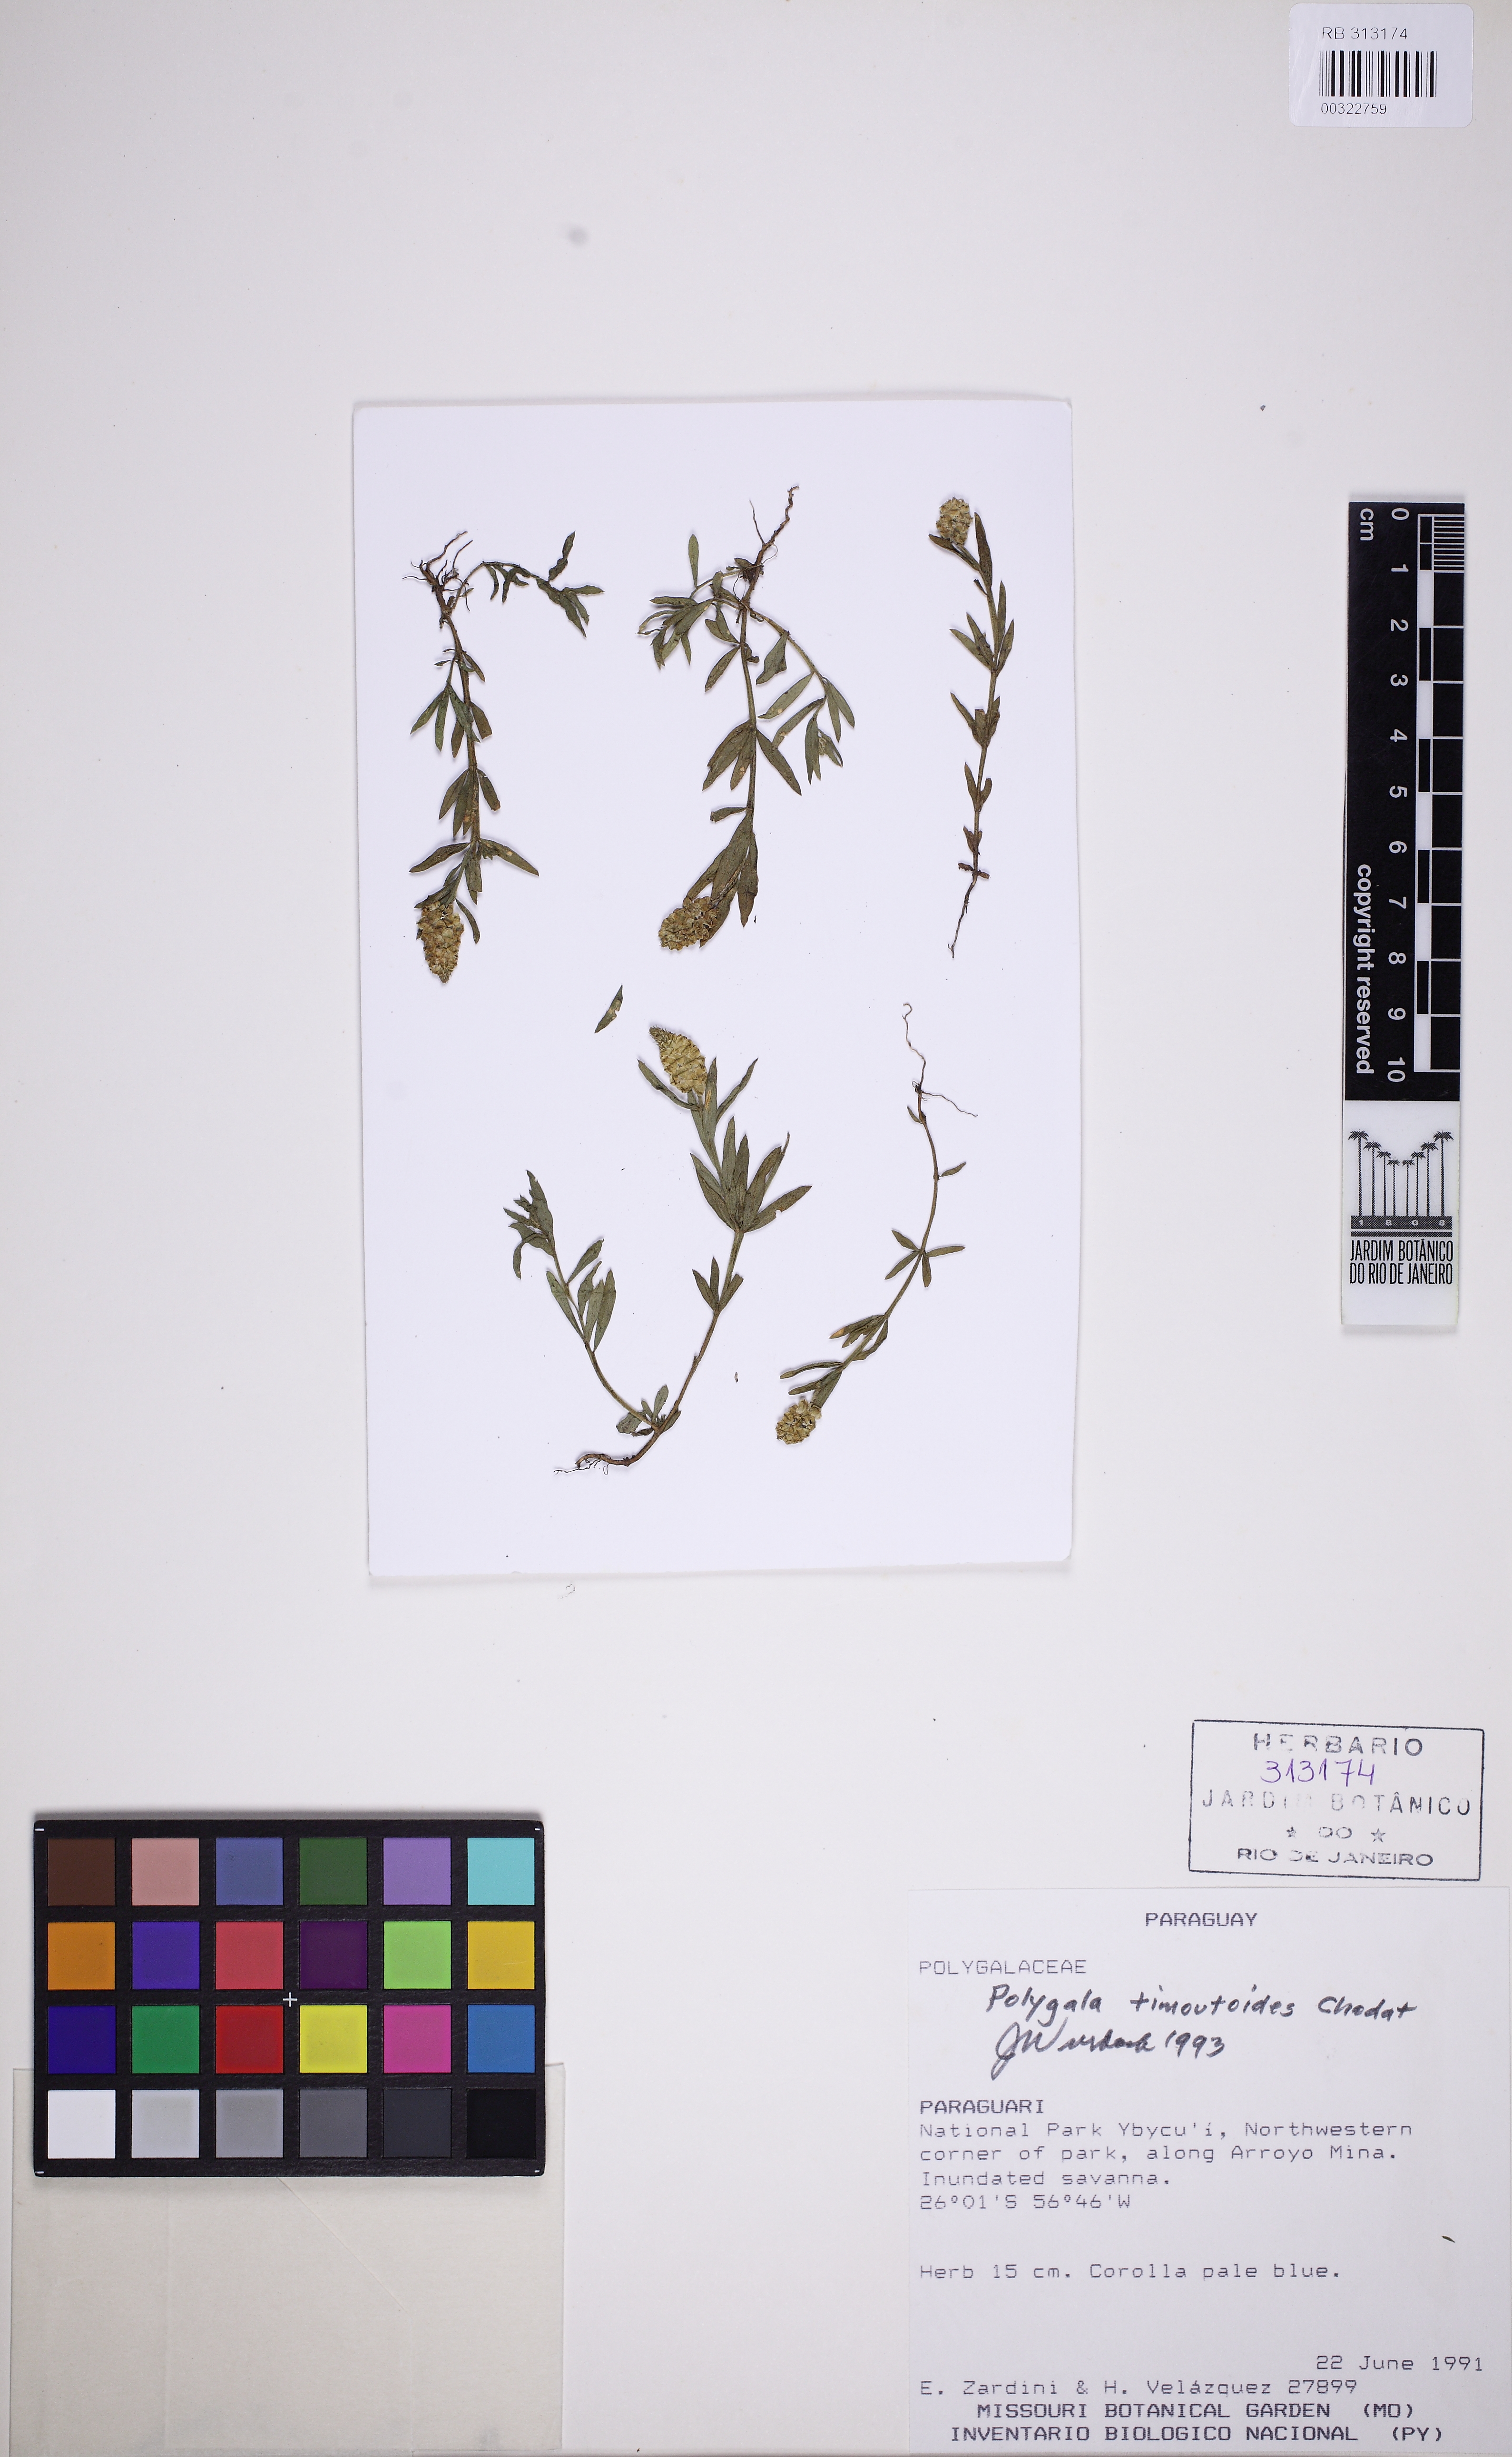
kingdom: Plantae
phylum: Tracheophyta
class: Magnoliopsida
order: Fabales
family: Polygalaceae
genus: Polygala
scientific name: Polygala timoutoides
